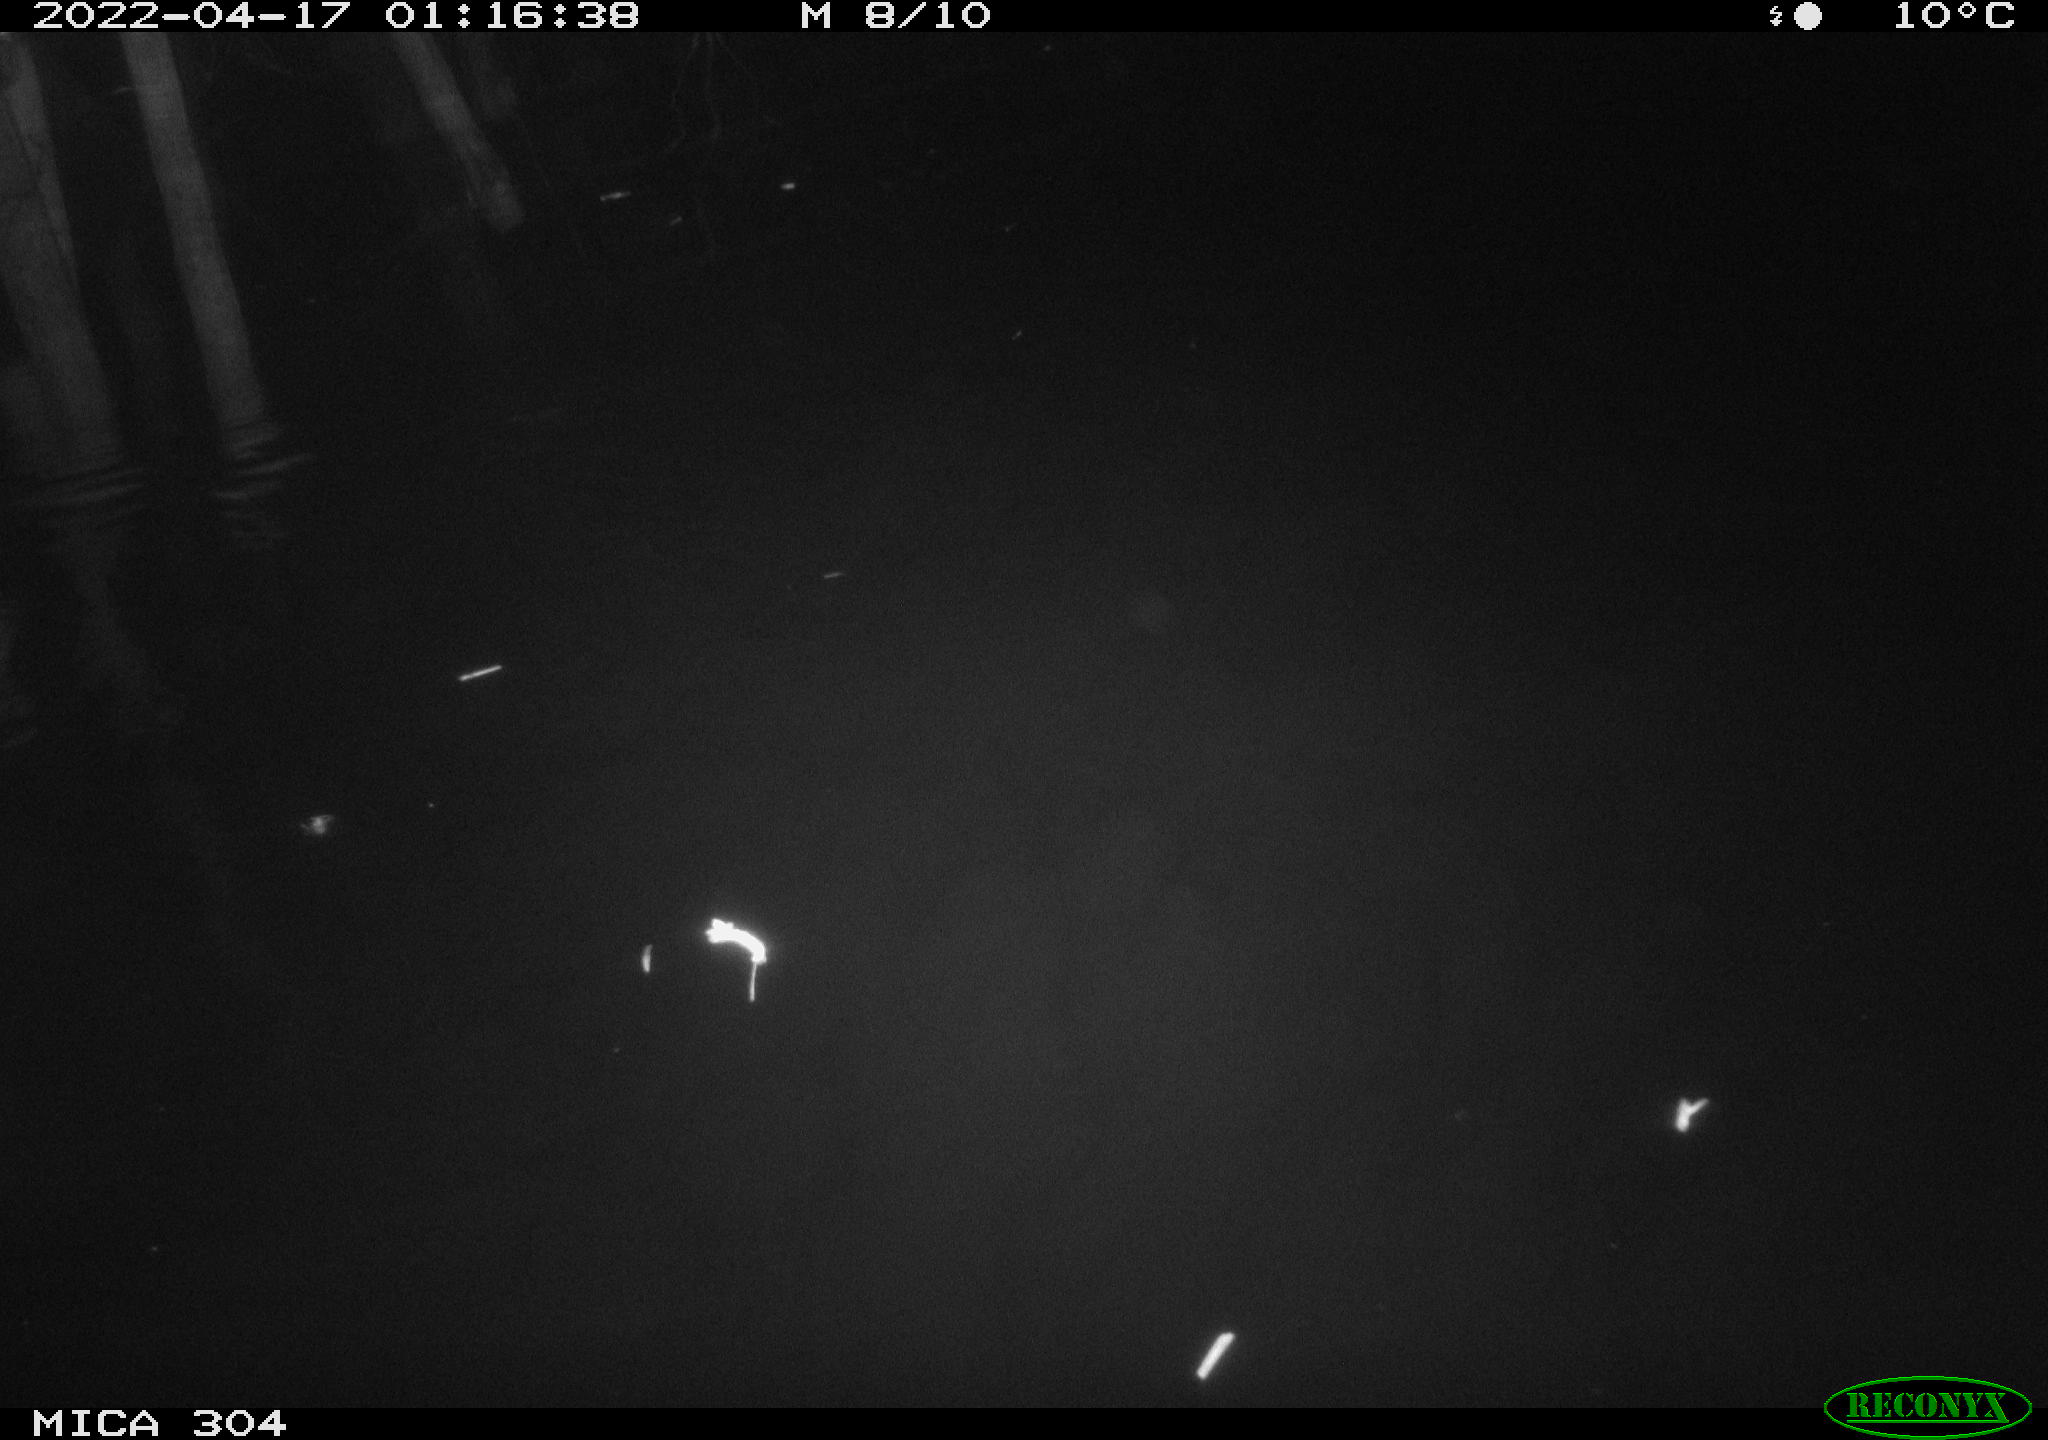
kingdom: Animalia
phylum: Chordata
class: Mammalia
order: Rodentia
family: Muridae
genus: Rattus
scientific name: Rattus norvegicus
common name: Brown rat
